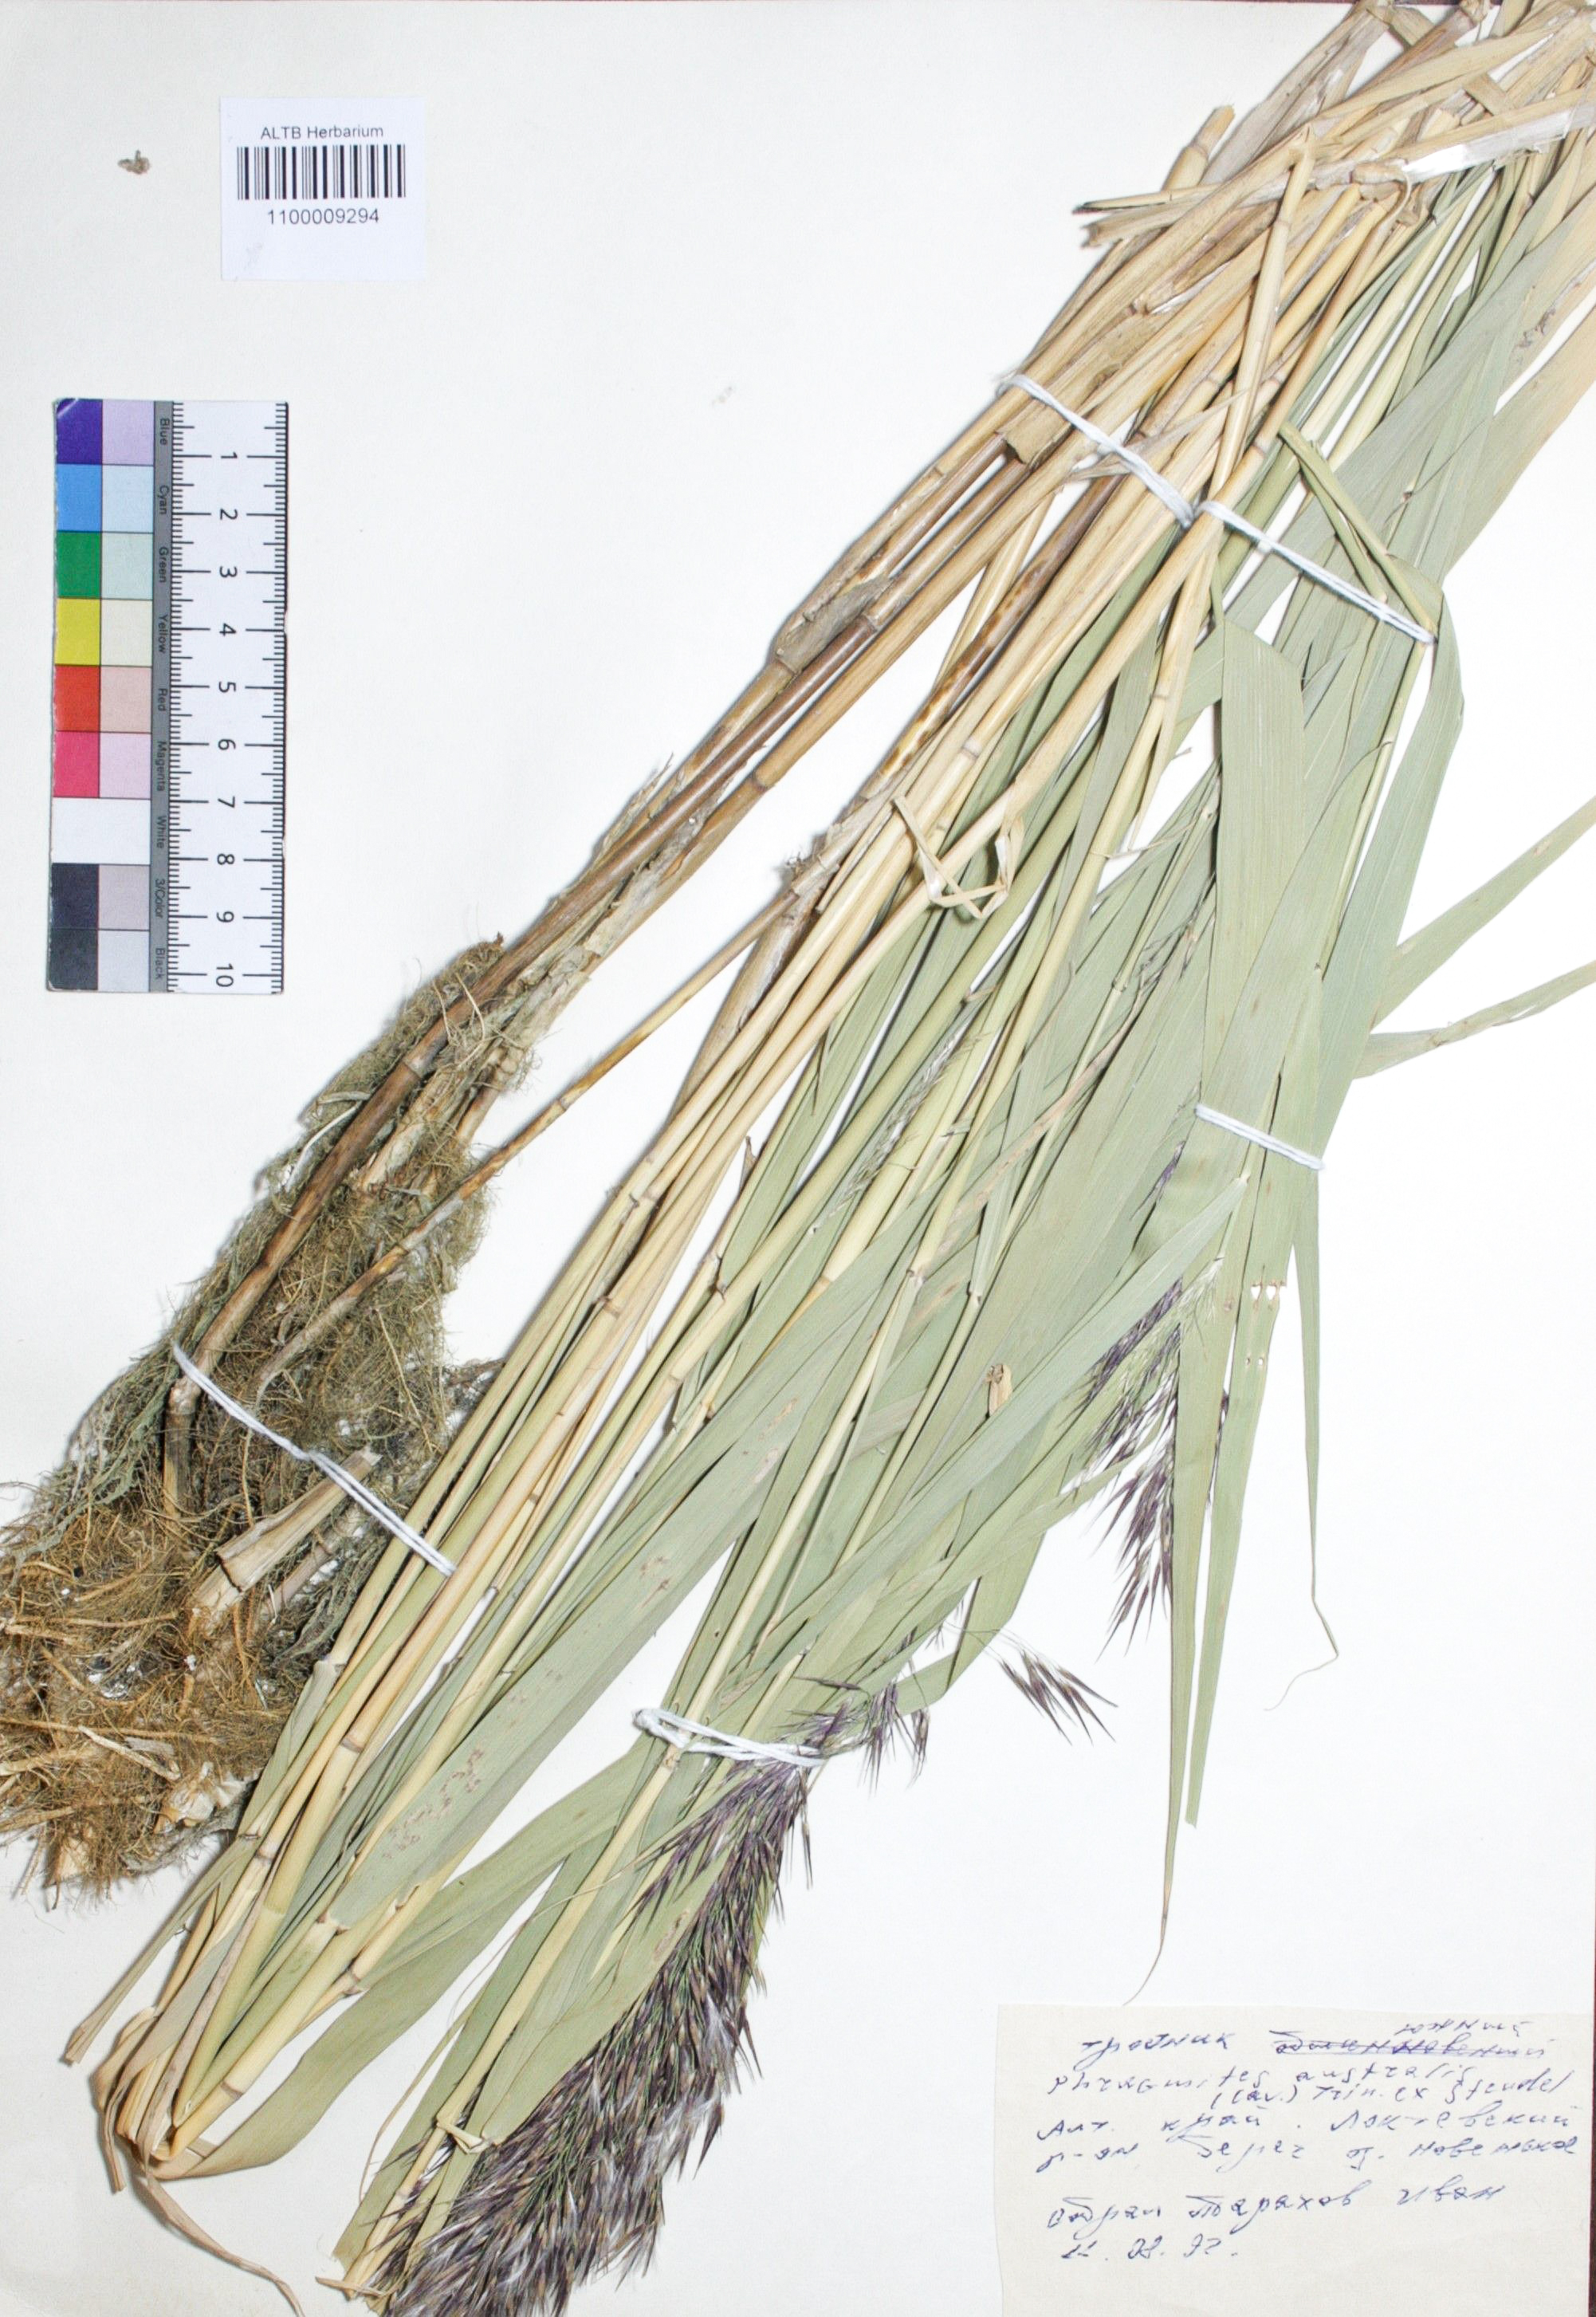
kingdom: Plantae
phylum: Tracheophyta
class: Liliopsida
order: Poales
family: Poaceae
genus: Phragmites
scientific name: Phragmites australis
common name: Common reed
